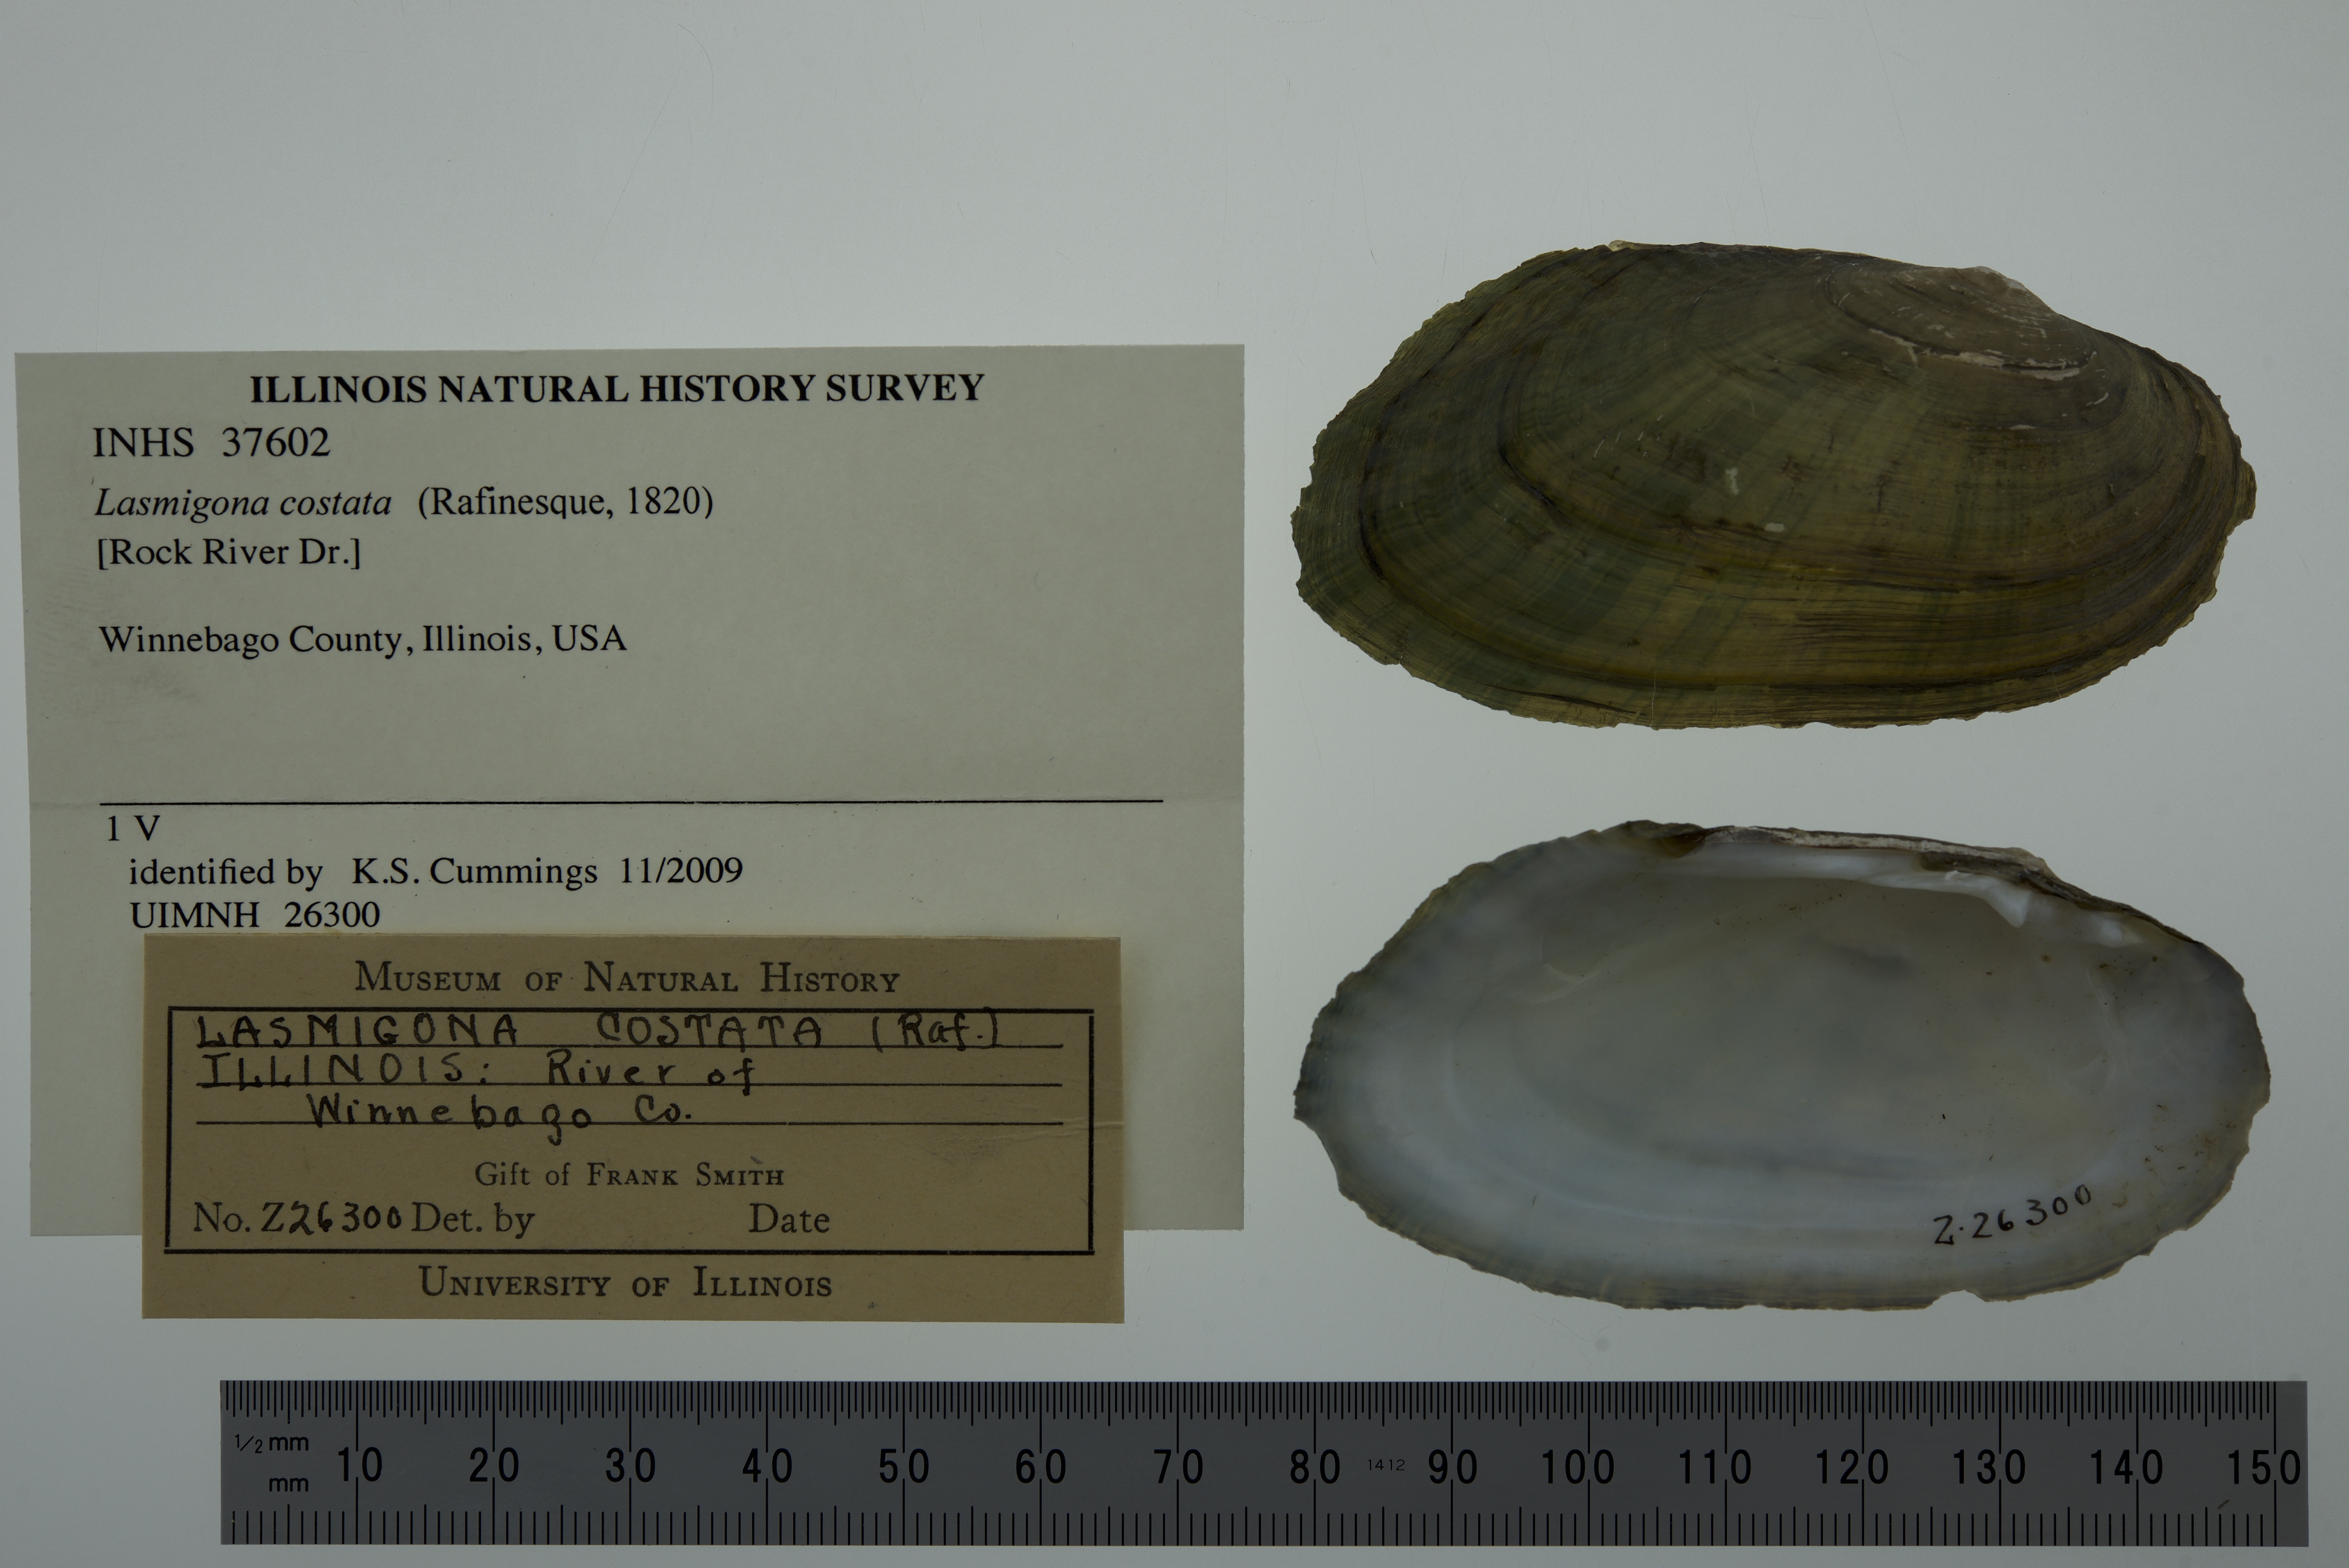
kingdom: Animalia
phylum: Mollusca
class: Bivalvia
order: Unionida
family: Unionidae
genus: Lasmigona
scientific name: Lasmigona costata
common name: Flutedshell
